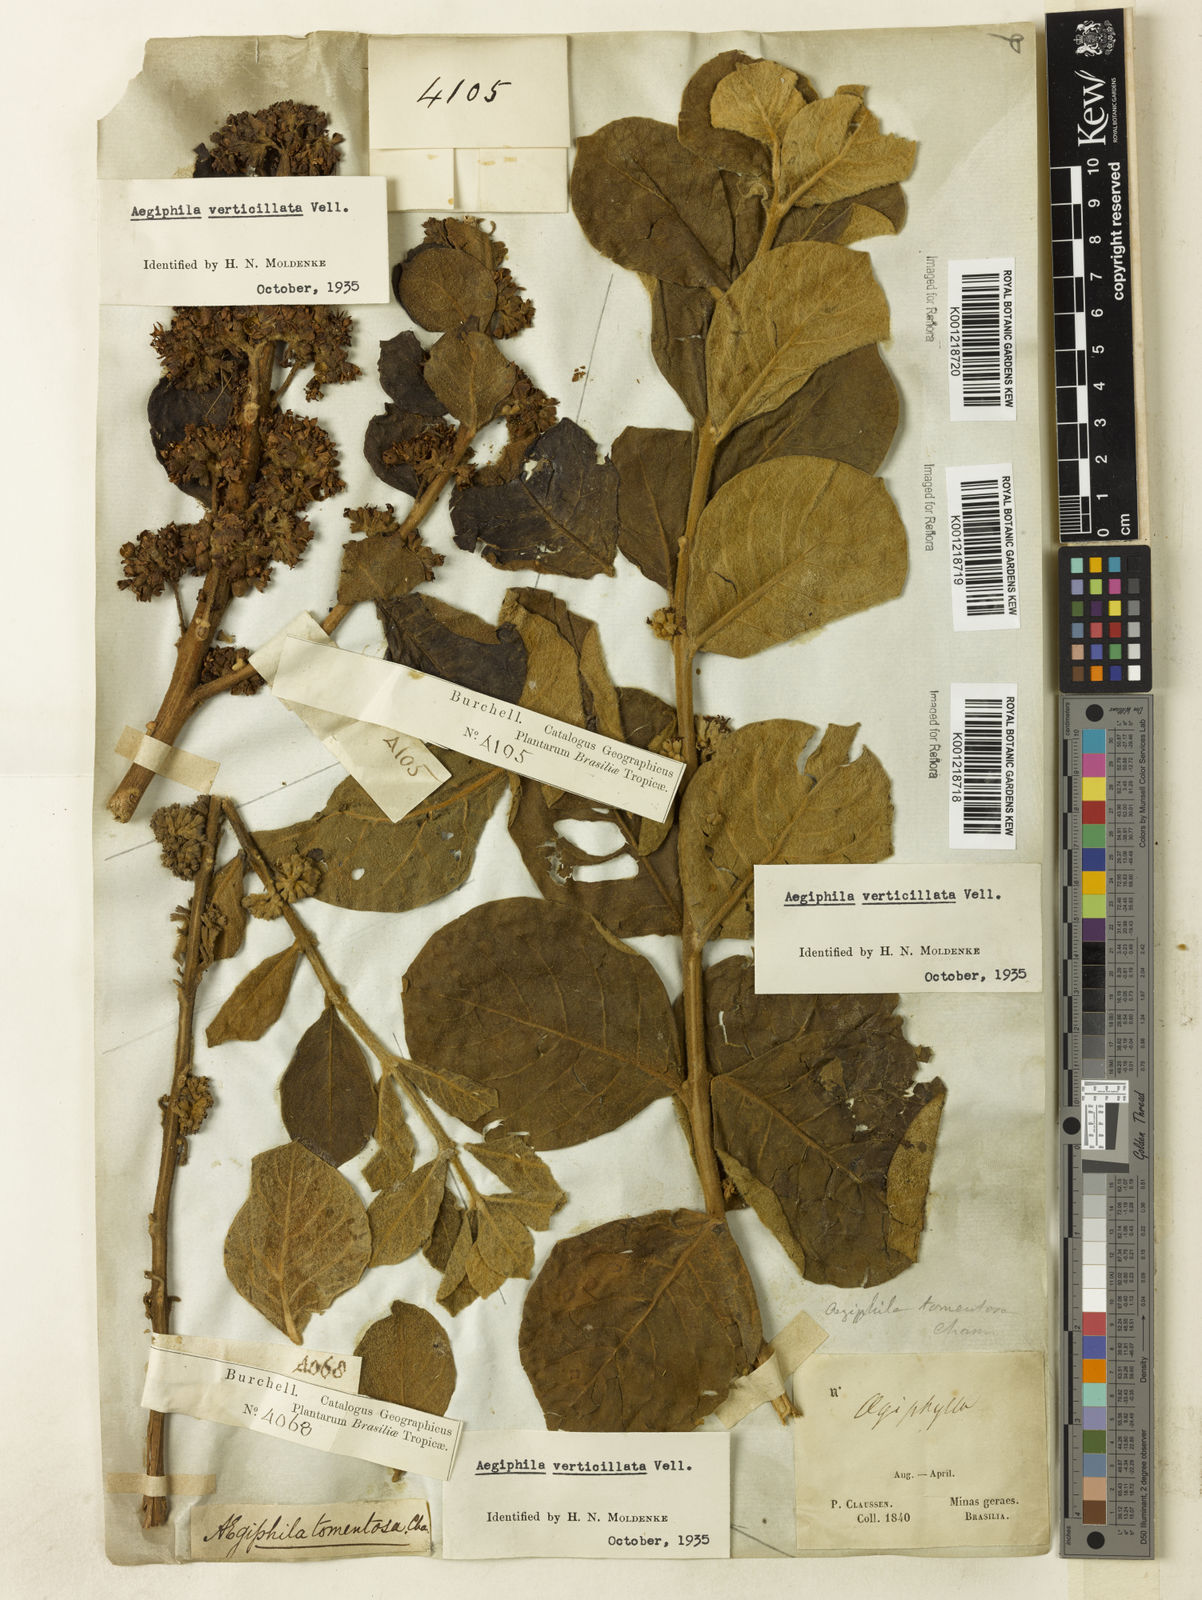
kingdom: Plantae
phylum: Tracheophyta
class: Magnoliopsida
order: Lamiales
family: Lamiaceae
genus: Aegiphila
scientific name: Aegiphila verticillata
